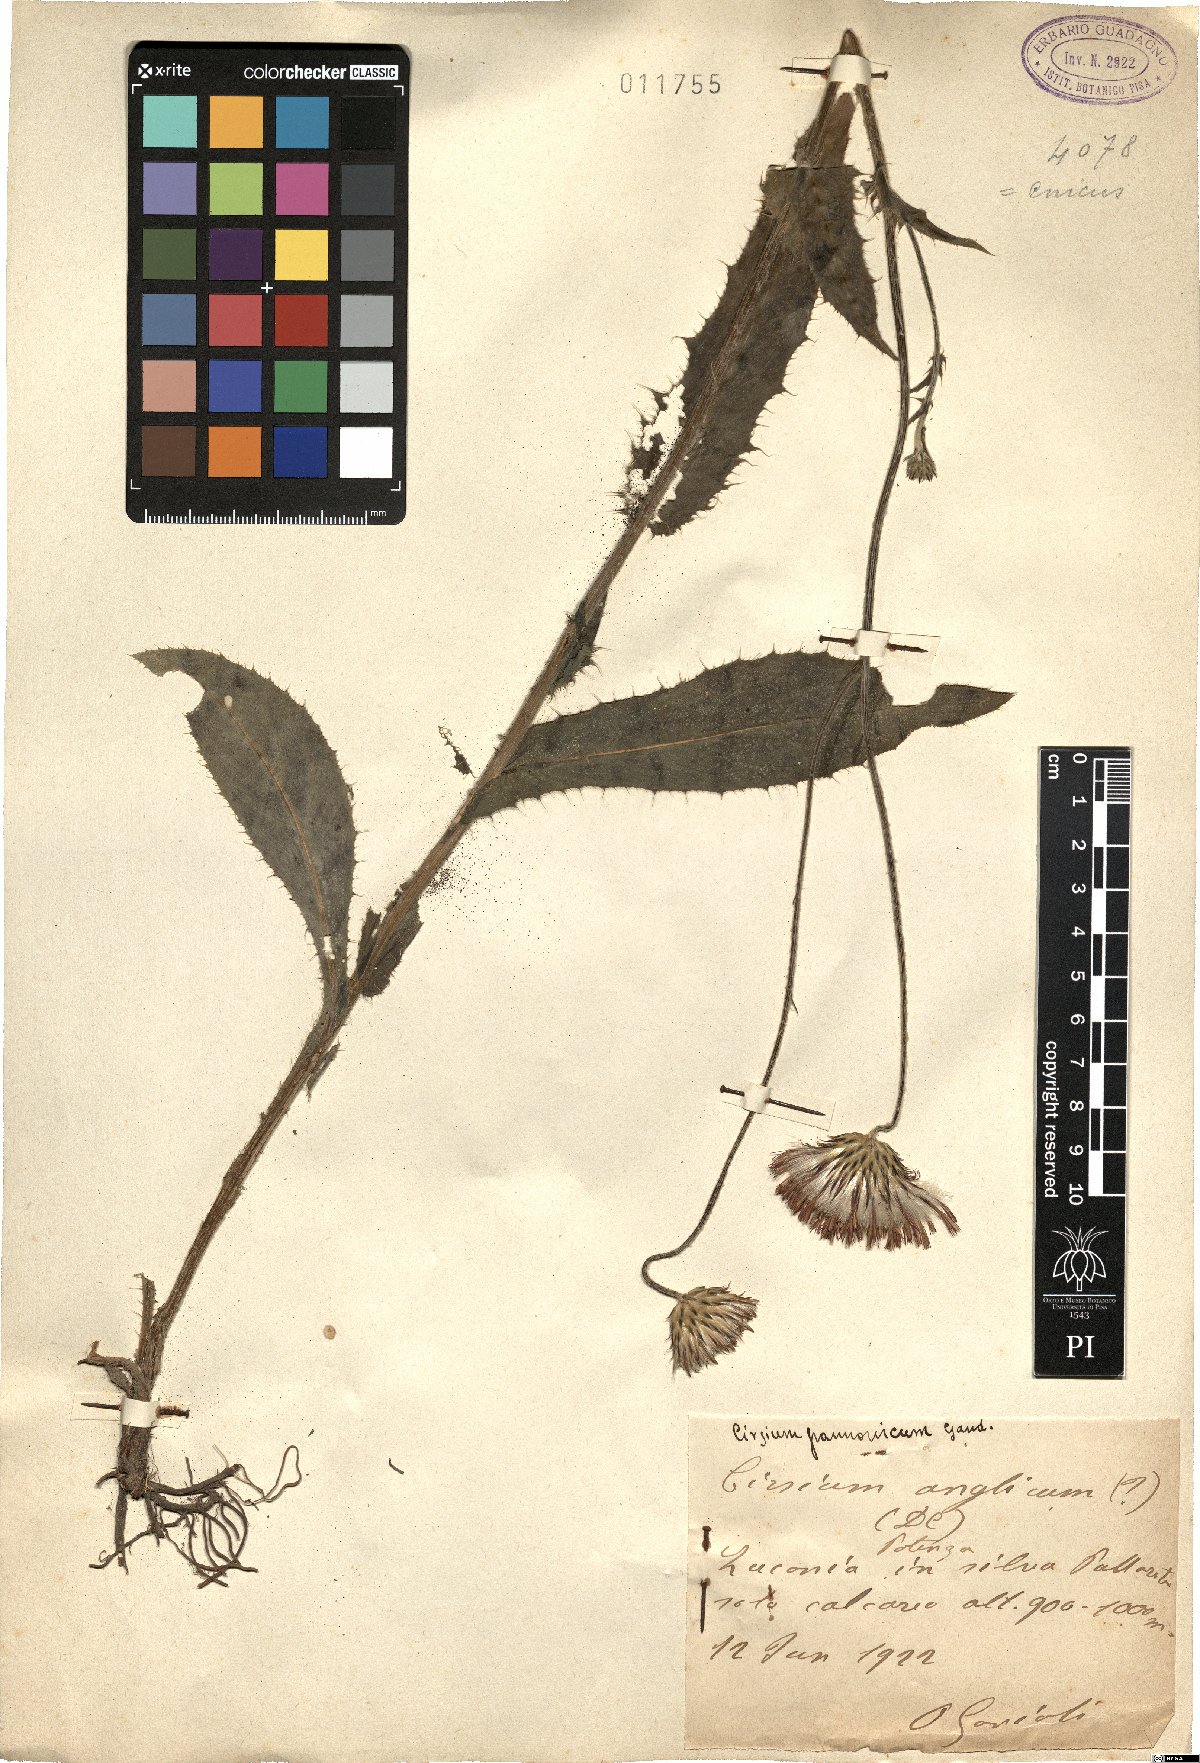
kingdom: Plantae
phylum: Tracheophyta
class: Magnoliopsida
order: Asterales
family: Asteraceae
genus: Cirsium
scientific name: Cirsium pannonicum
